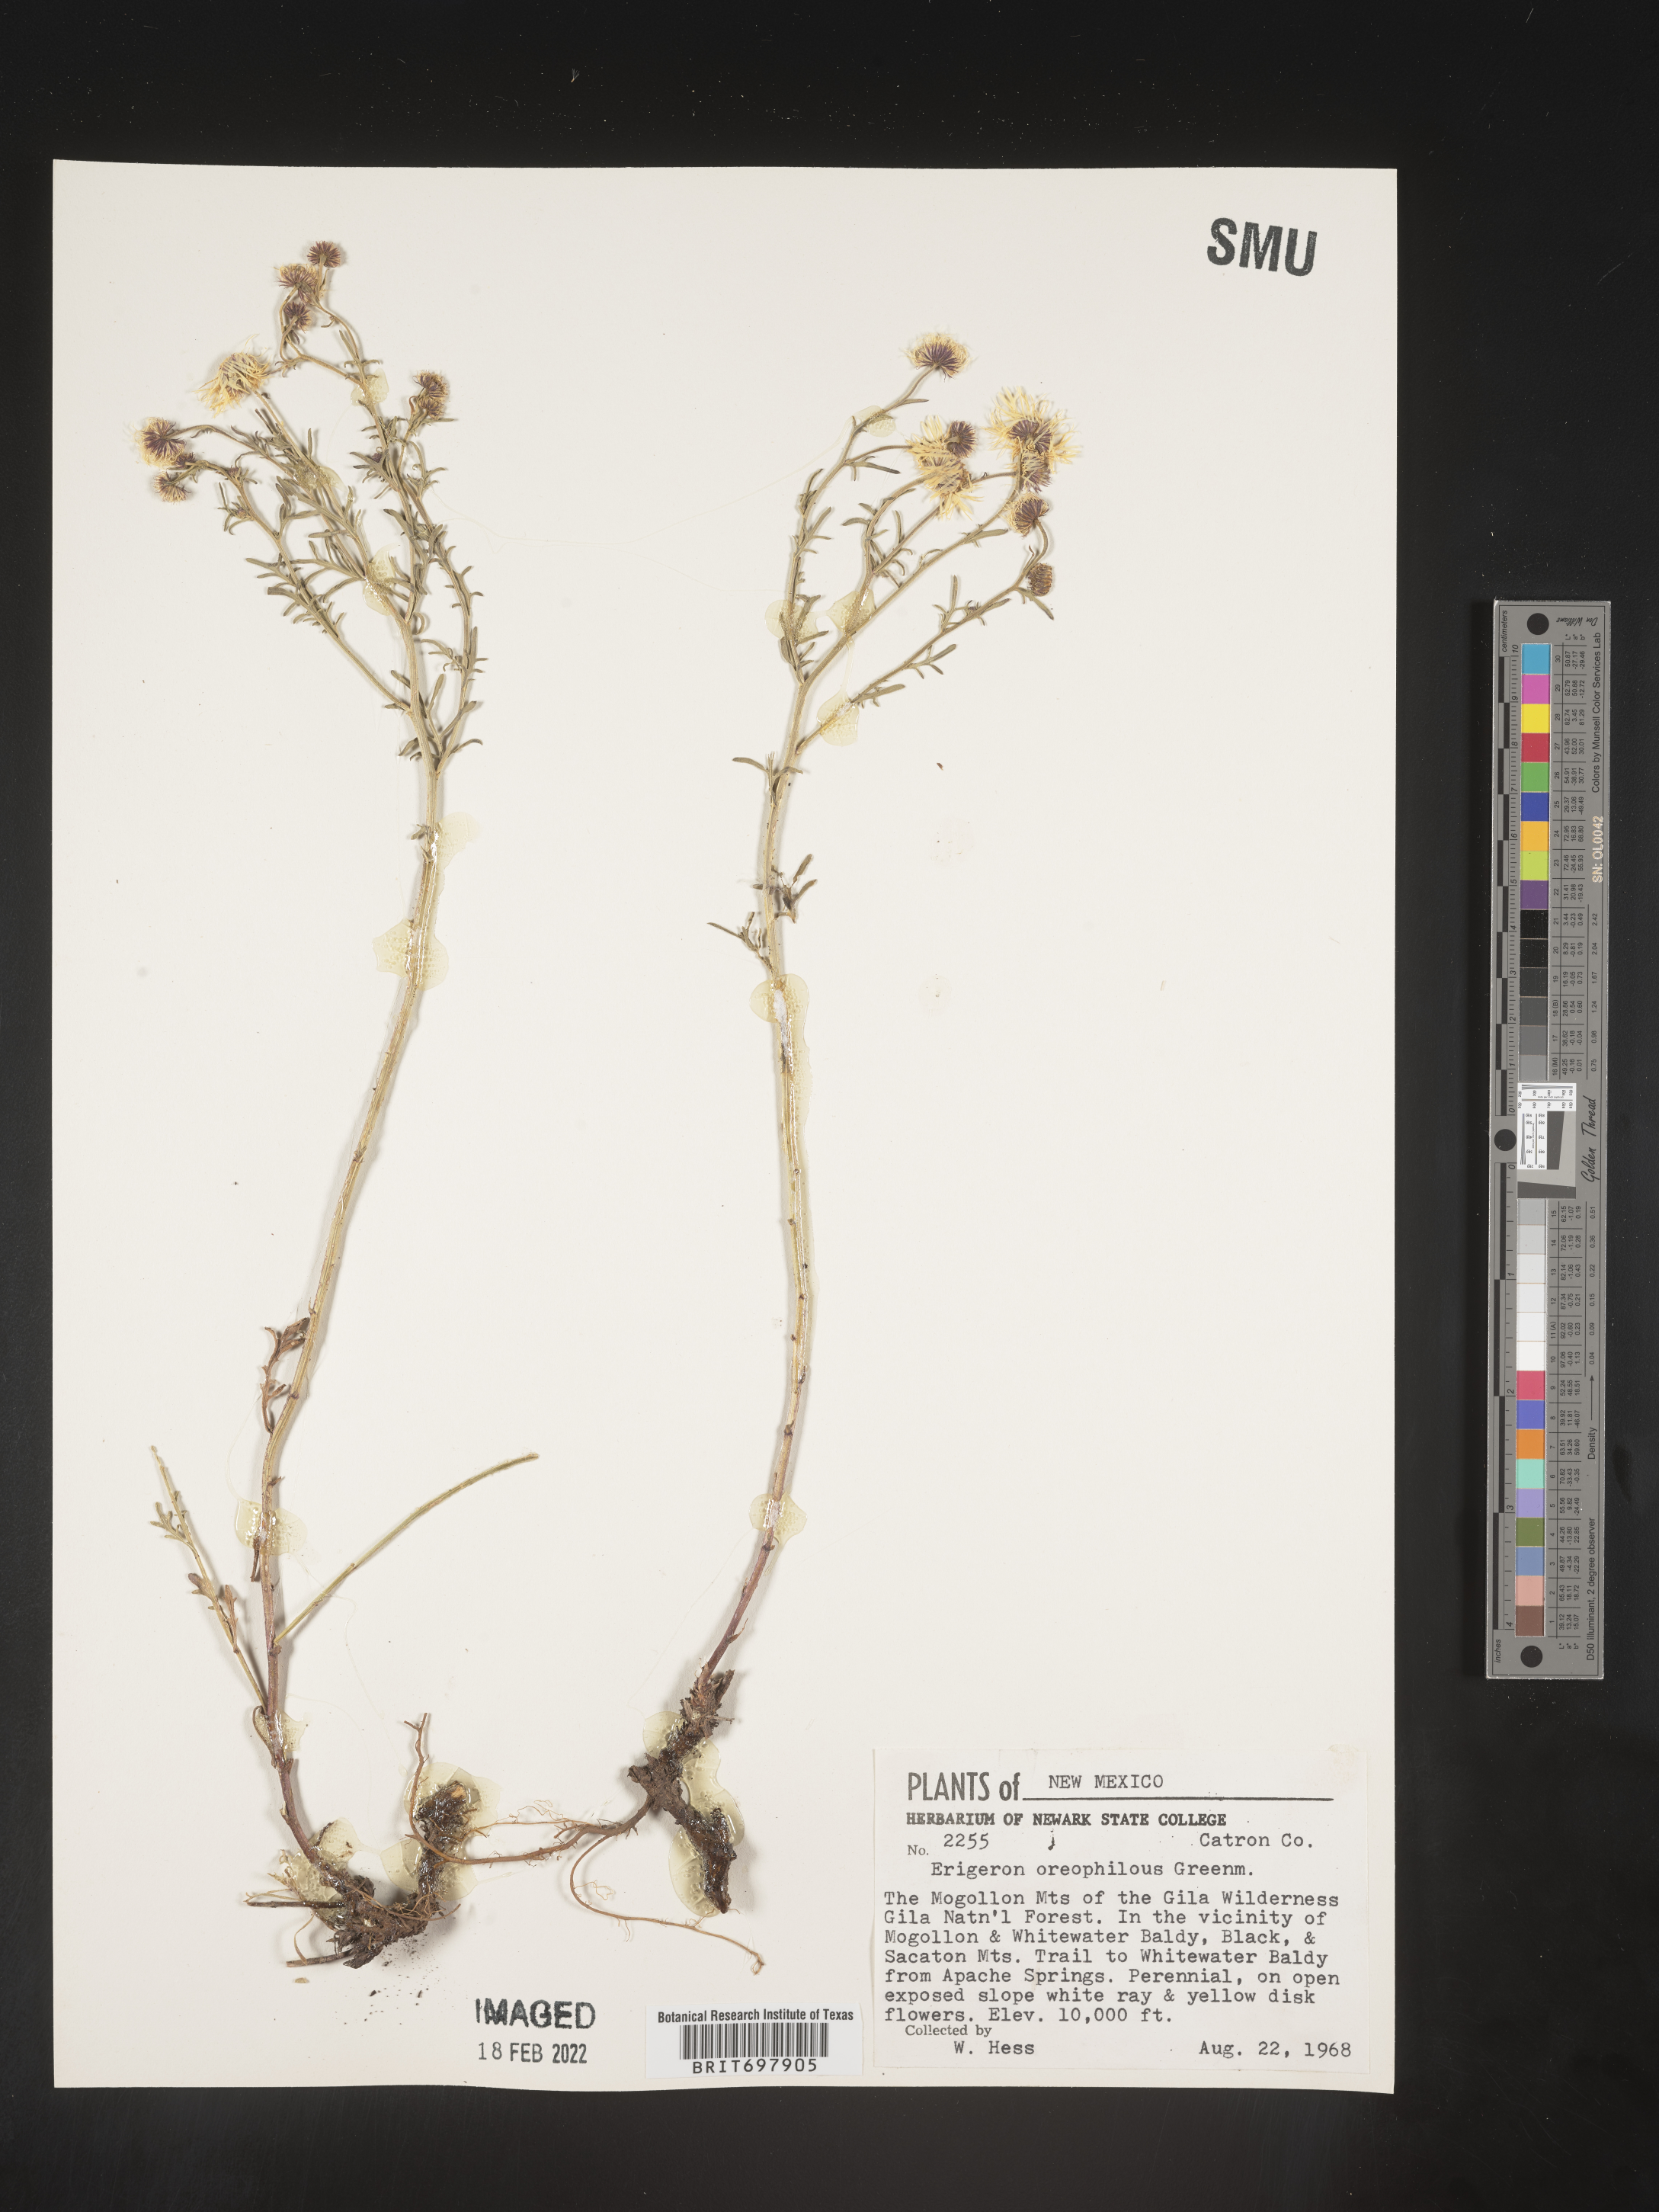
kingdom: Plantae
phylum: Tracheophyta
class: Magnoliopsida
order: Asterales
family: Asteraceae
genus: Erigeron
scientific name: Erigeron oreophilus
